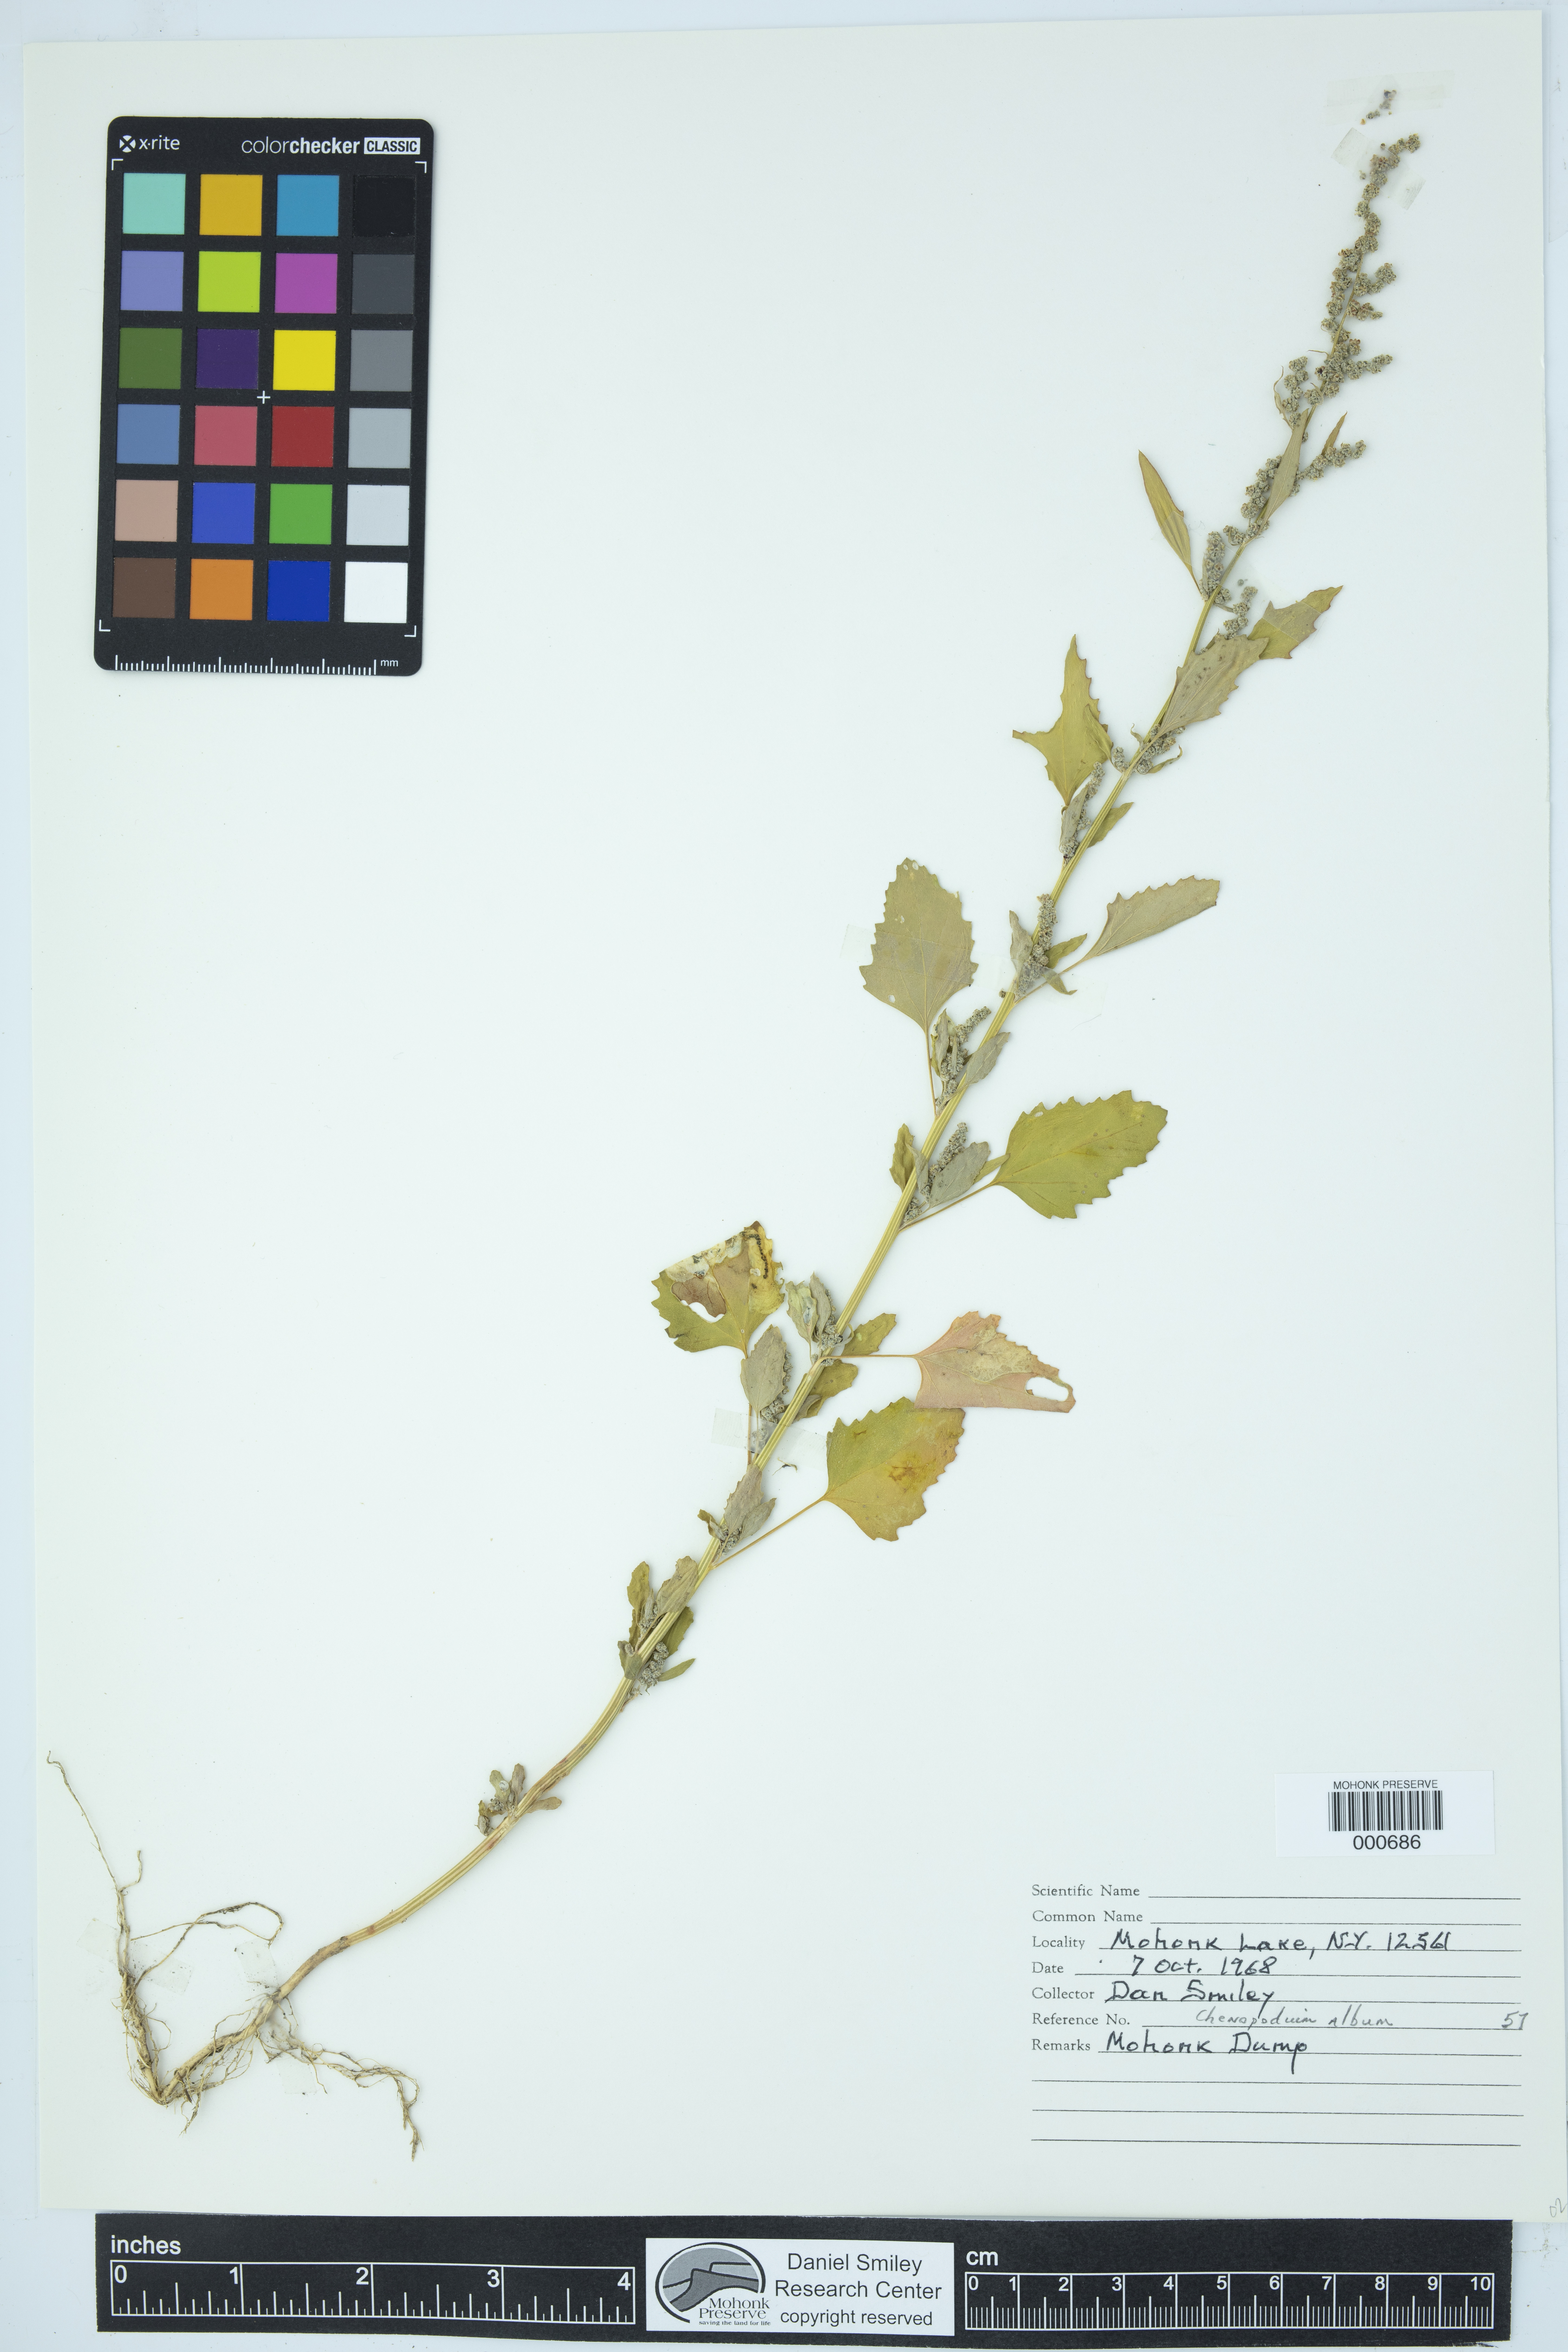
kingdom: Plantae
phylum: Tracheophyta
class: Magnoliopsida
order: Caryophyllales
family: Amaranthaceae
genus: Chenopodium
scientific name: Chenopodium album
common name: Fat-hen
